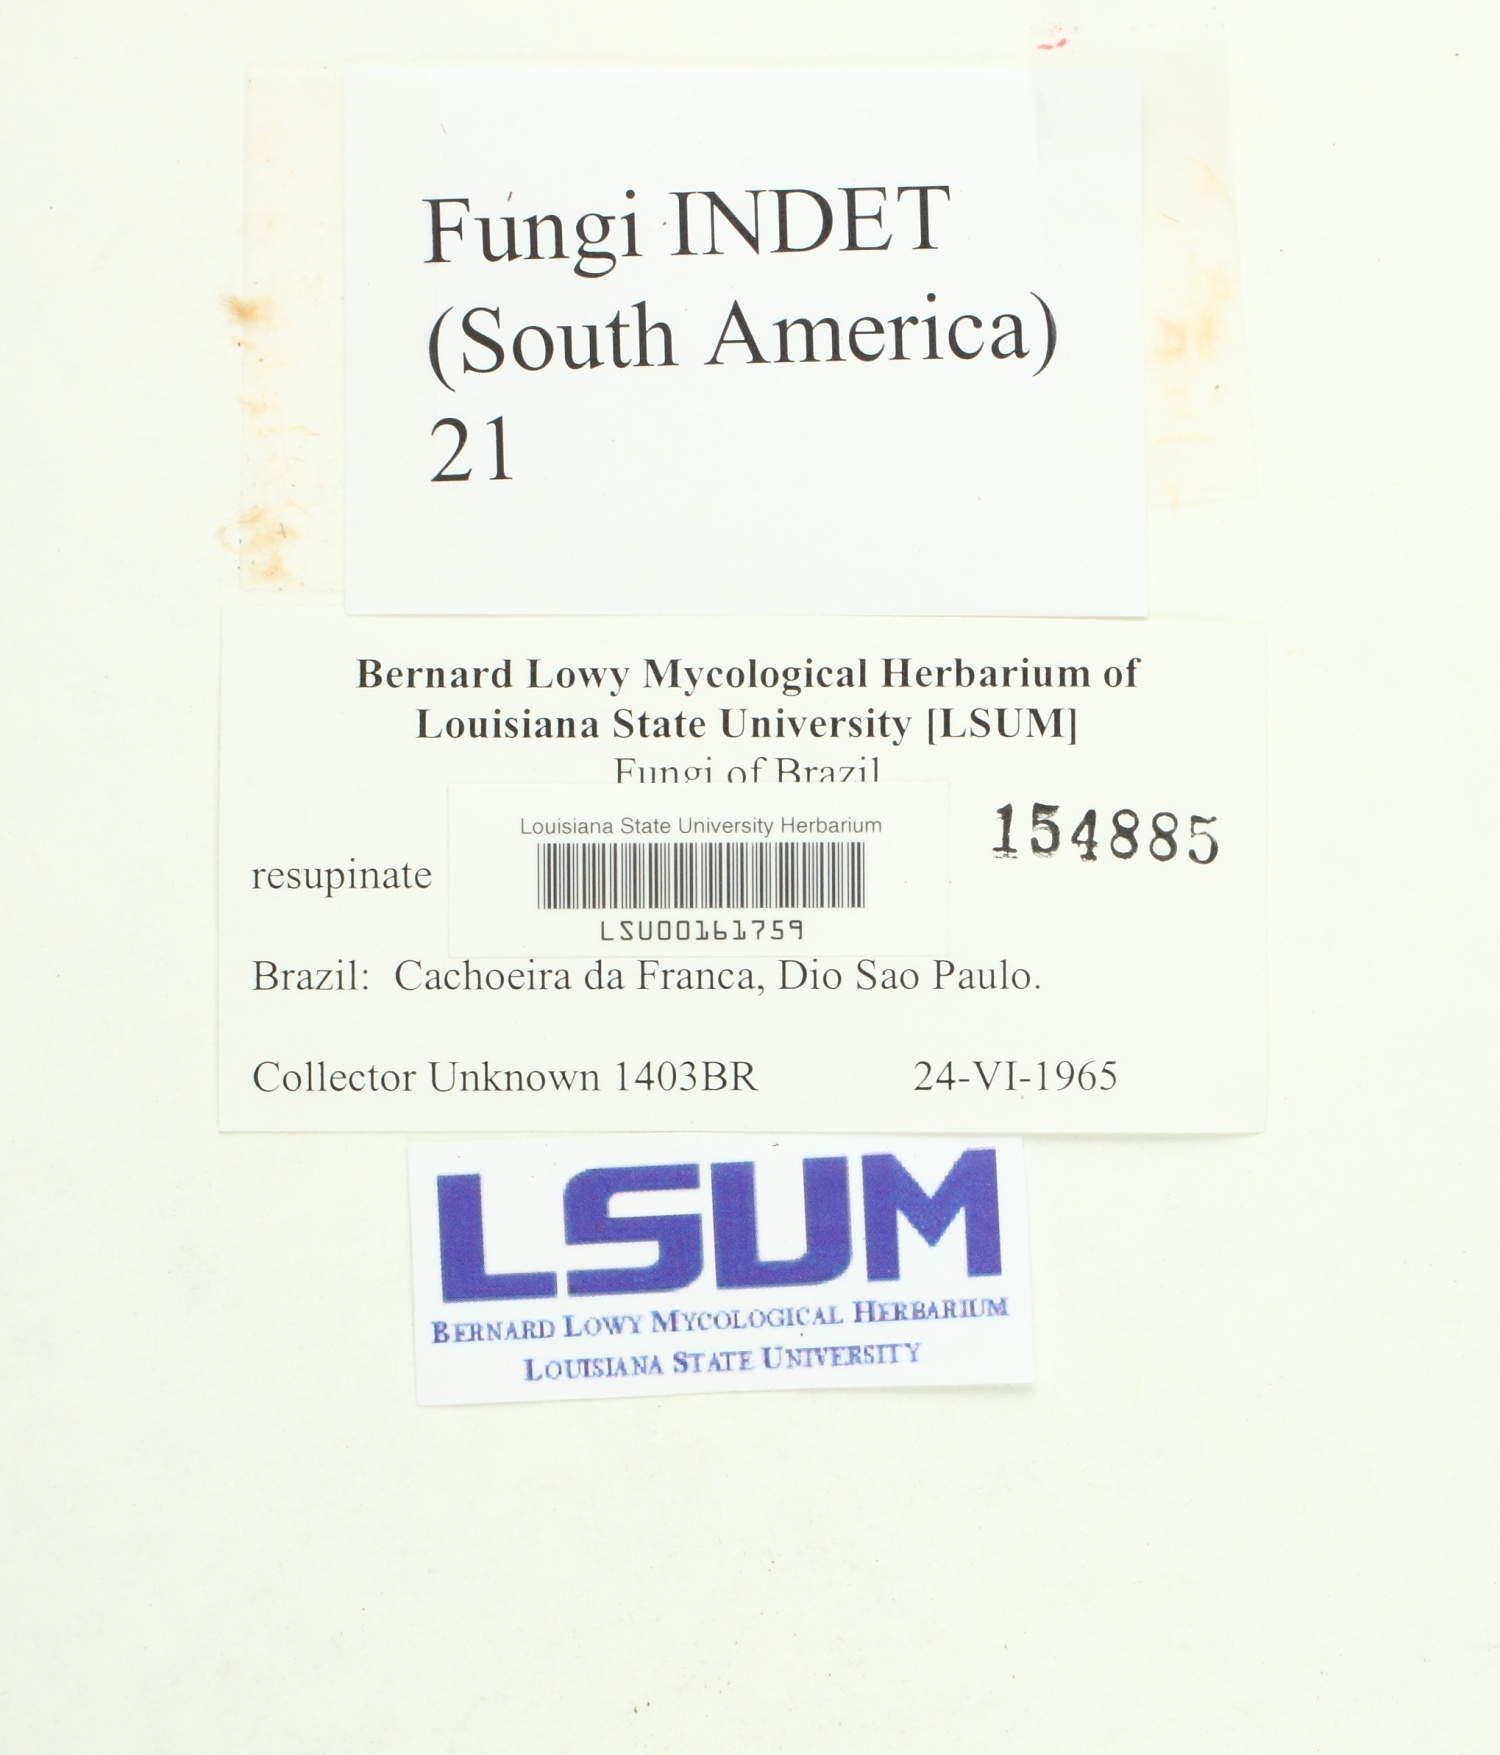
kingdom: Fungi
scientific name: Fungi
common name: Fungi
